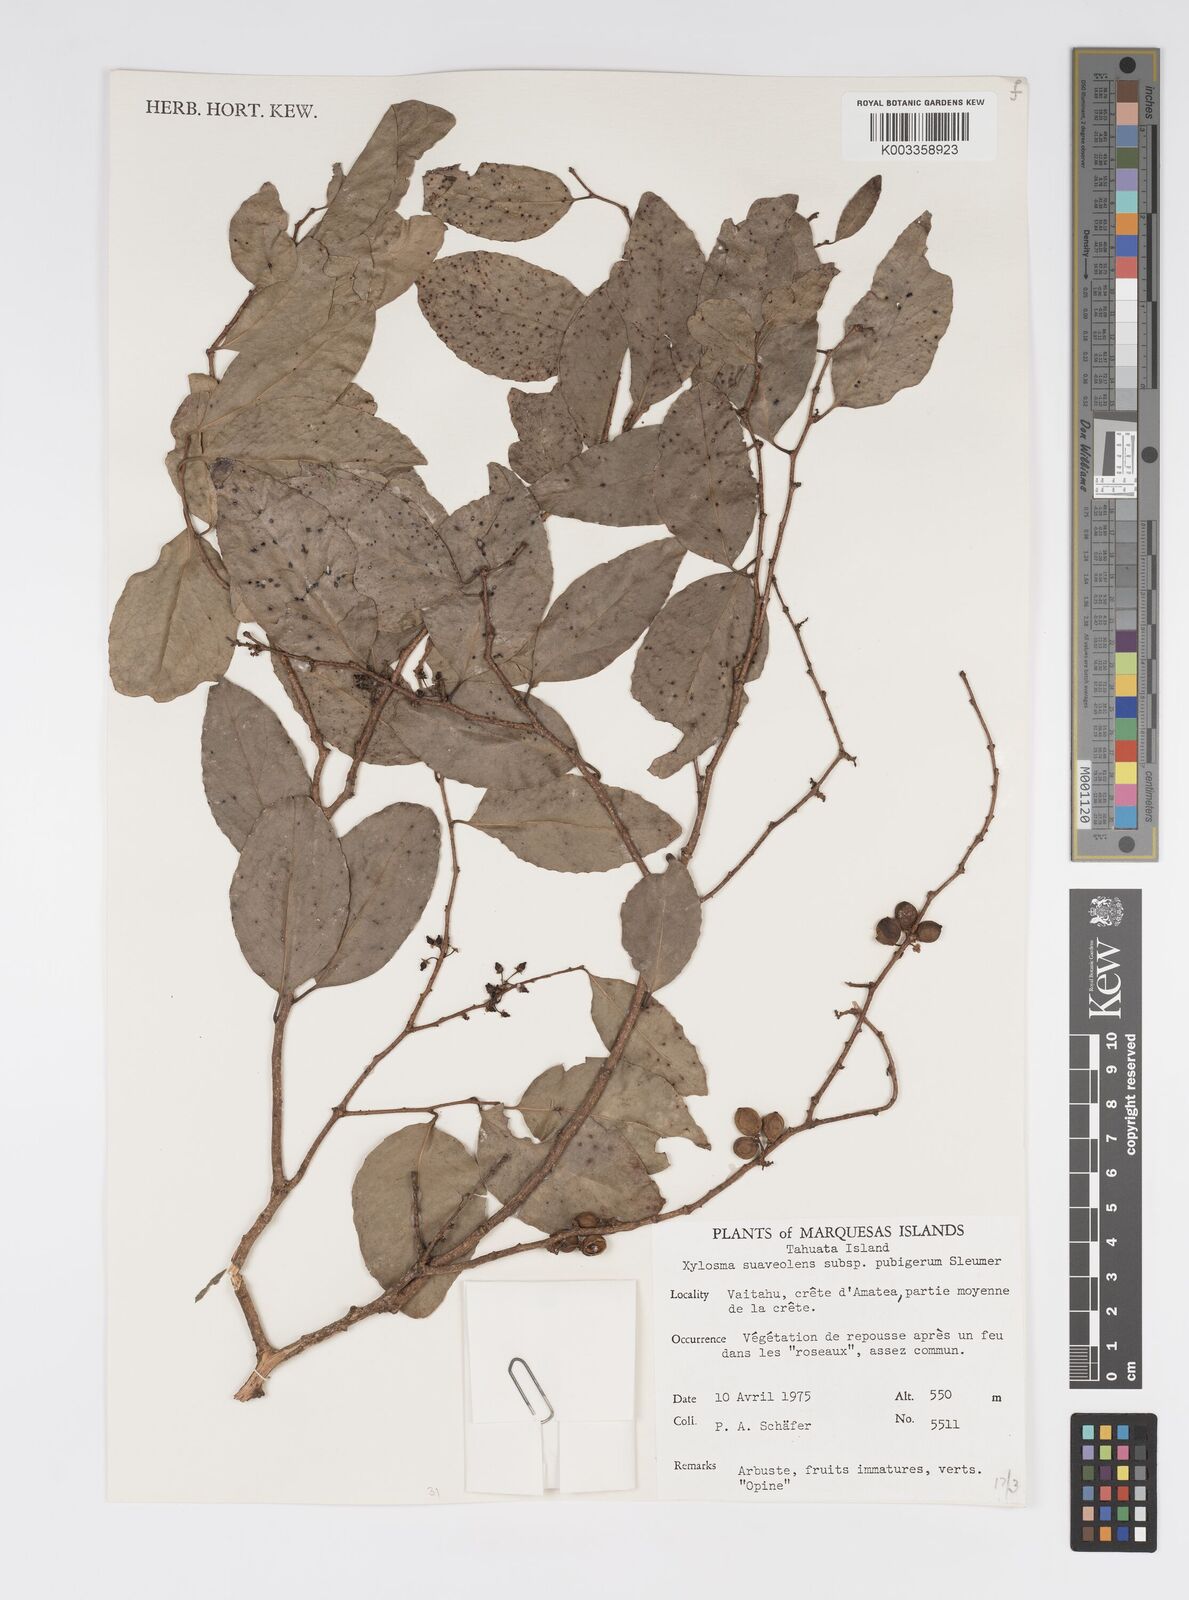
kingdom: Plantae
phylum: Tracheophyta
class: Magnoliopsida
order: Malpighiales
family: Salicaceae
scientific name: Salicaceae
